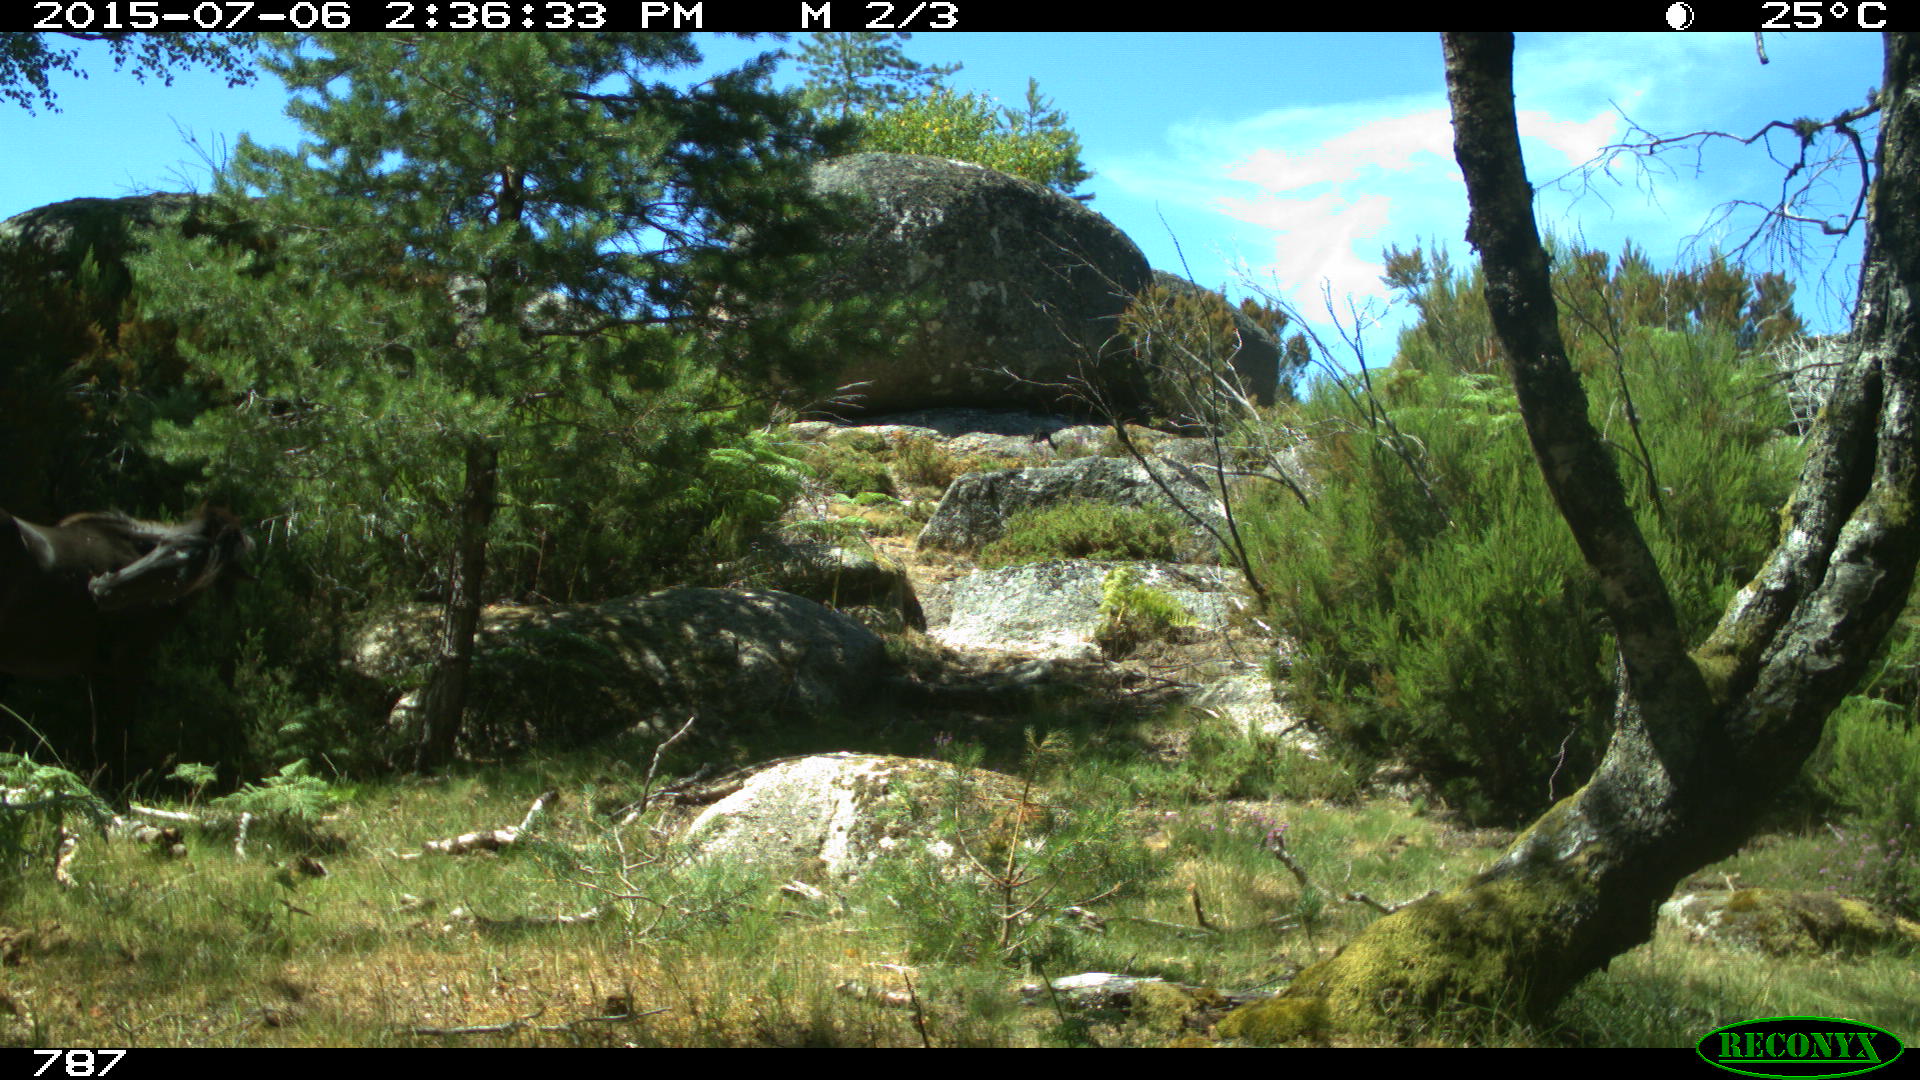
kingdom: Animalia
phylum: Chordata
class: Mammalia
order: Perissodactyla
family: Equidae
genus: Equus
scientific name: Equus caballus
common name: Horse
